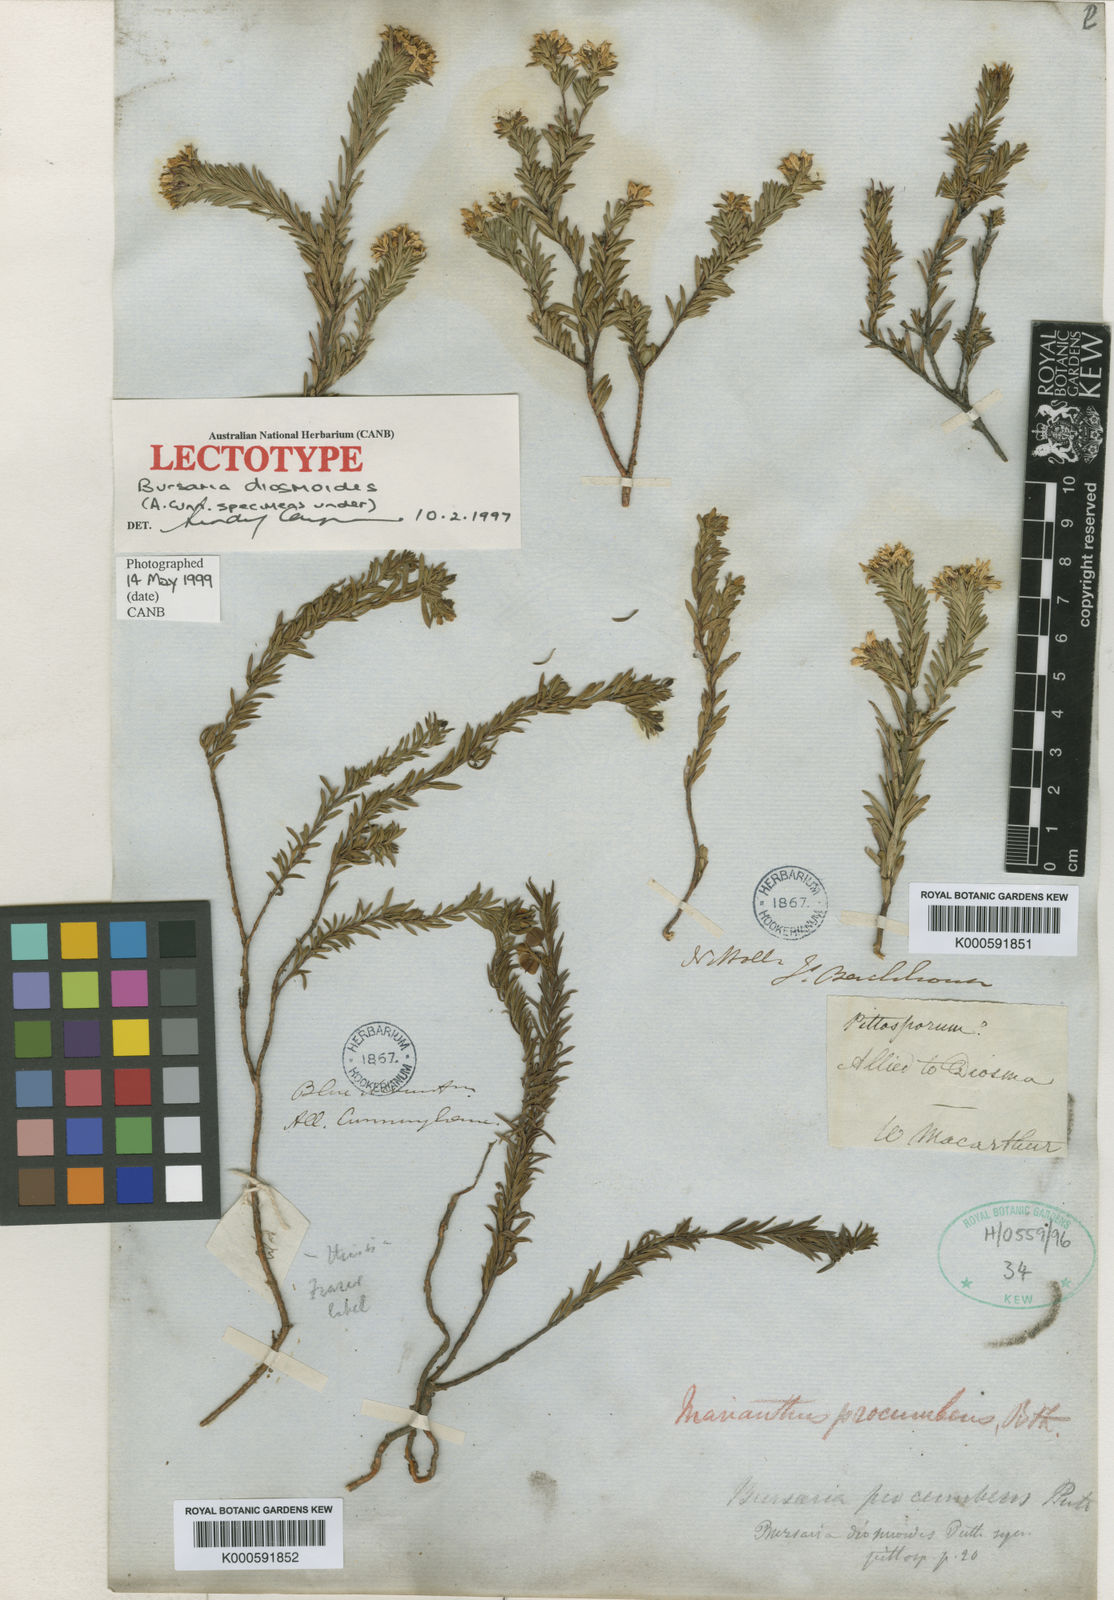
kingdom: Plantae
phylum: Tracheophyta
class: Magnoliopsida
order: Apiales
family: Pittosporaceae
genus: Marianthus
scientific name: Marianthus
